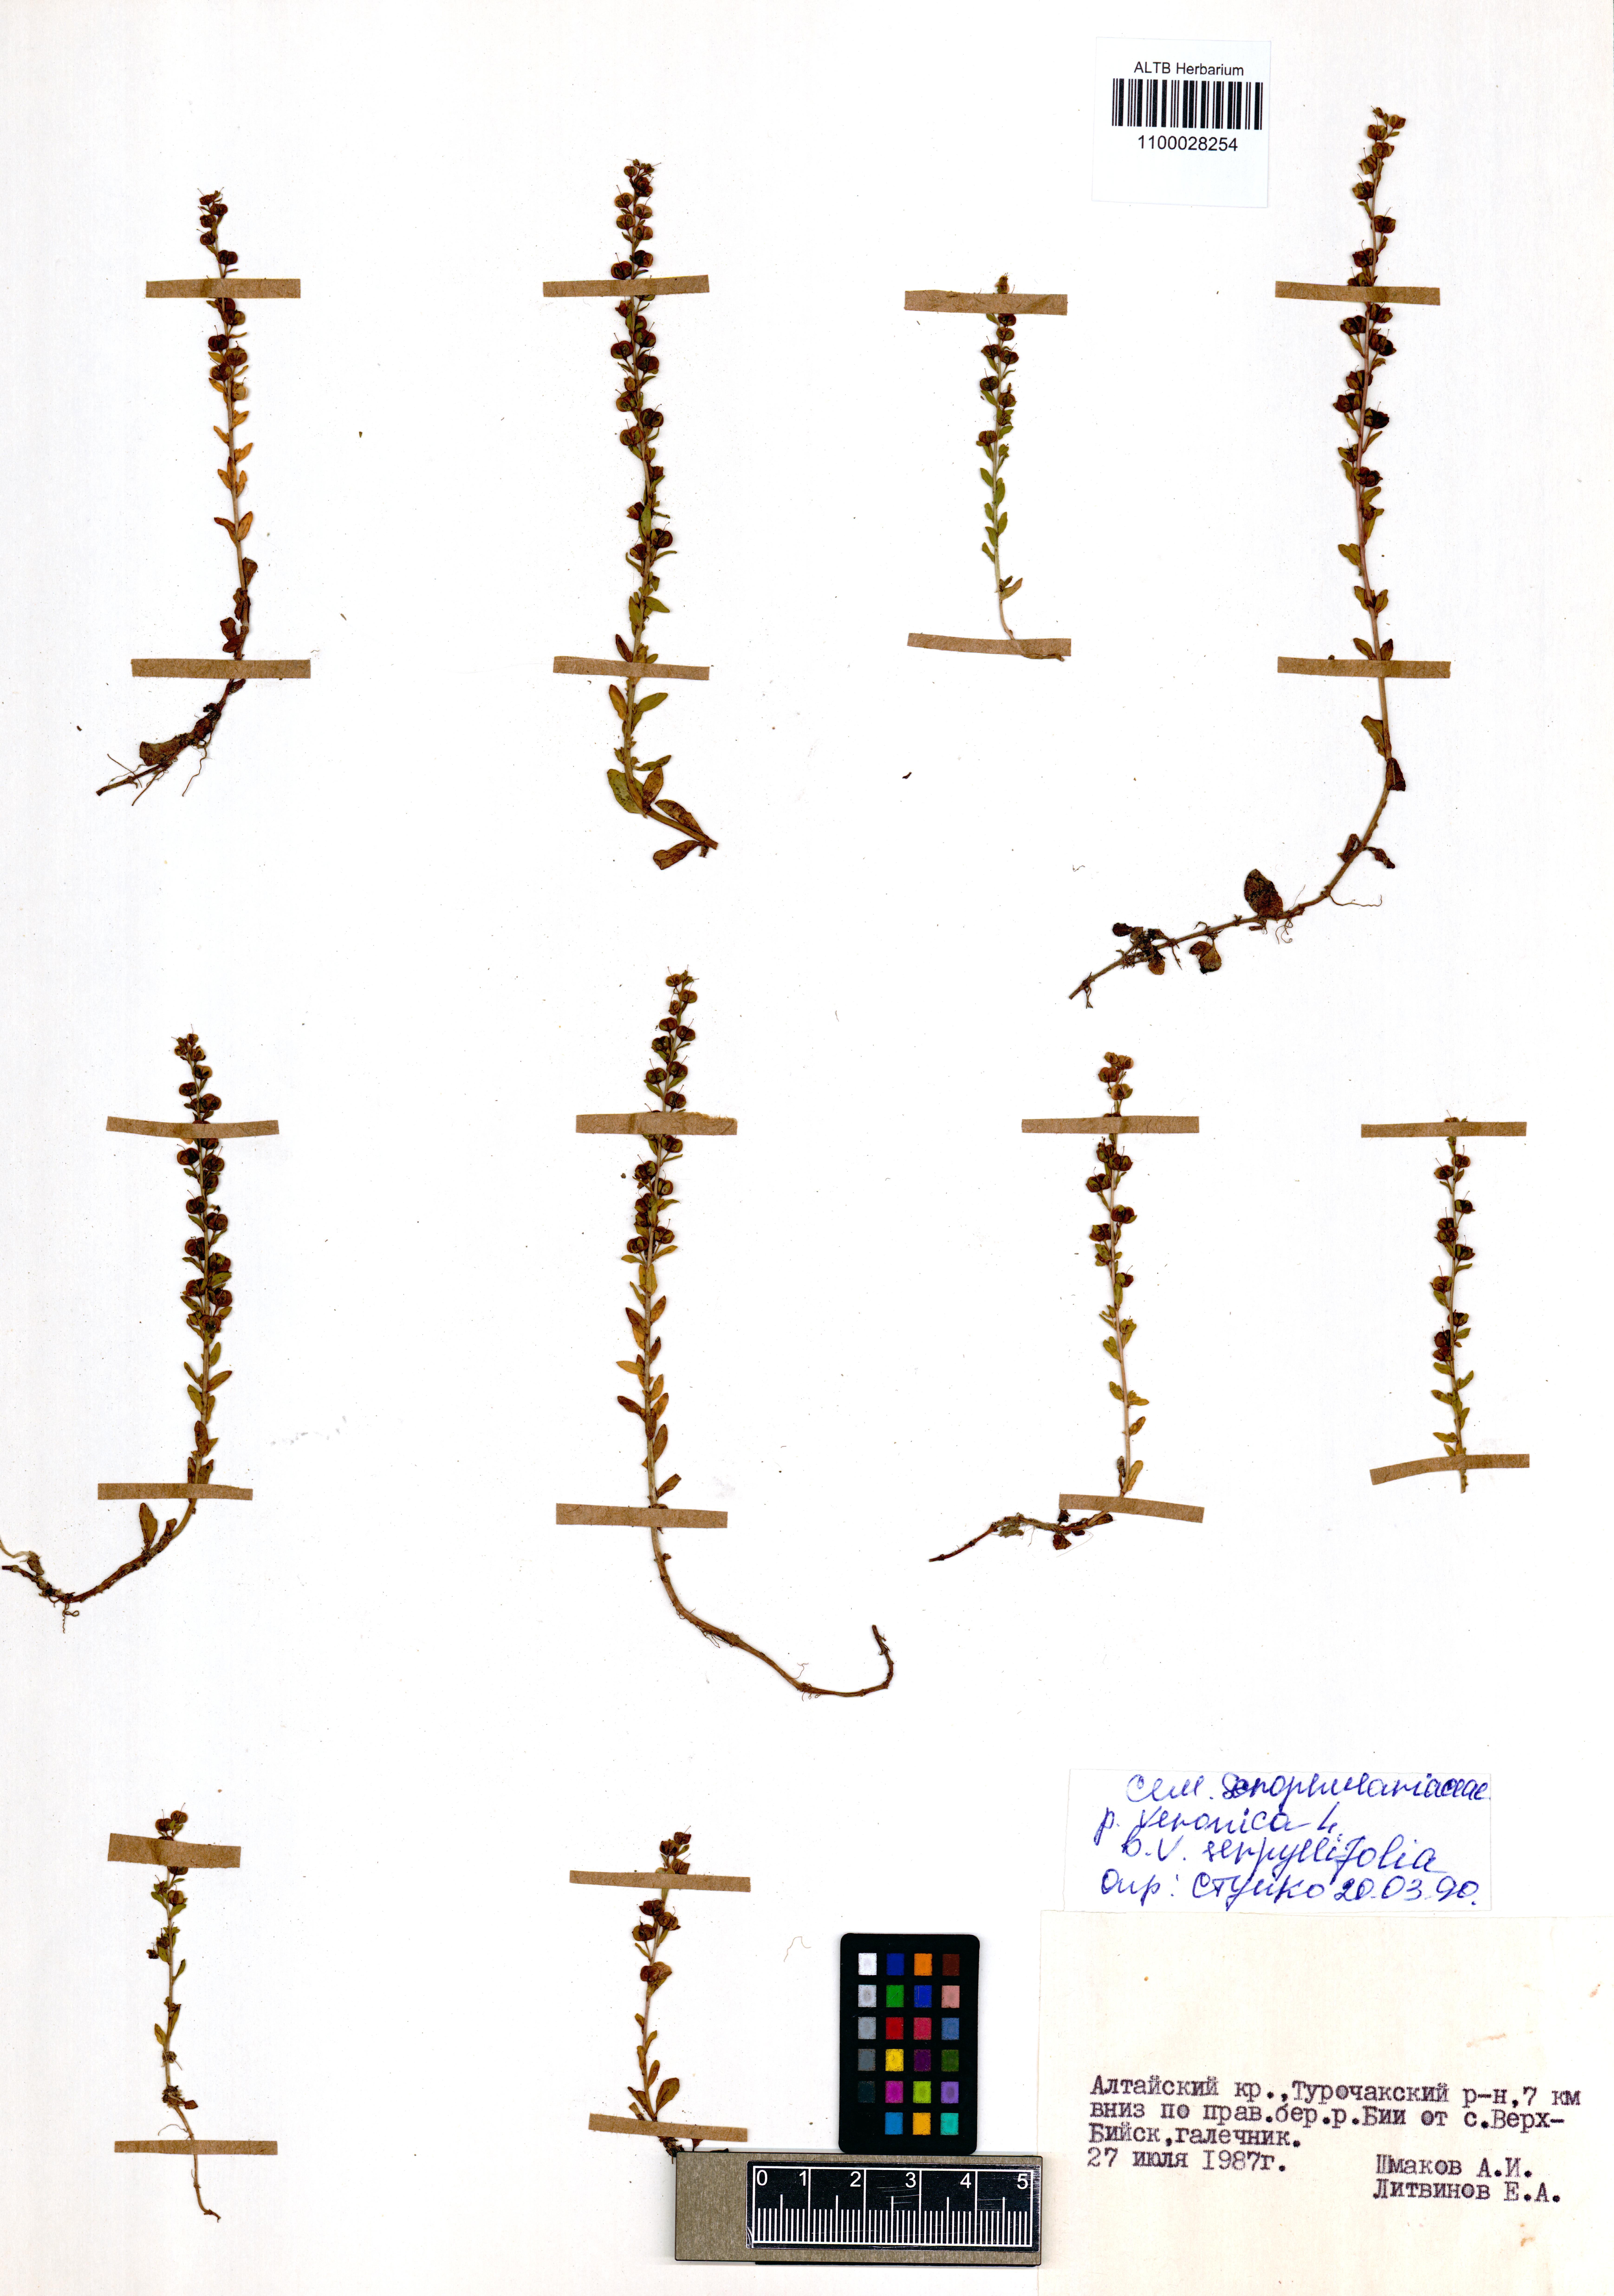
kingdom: Plantae
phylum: Tracheophyta
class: Magnoliopsida
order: Lamiales
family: Plantaginaceae
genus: Veronica
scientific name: Veronica serpyllifolia
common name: Thyme-leaved speedwell
